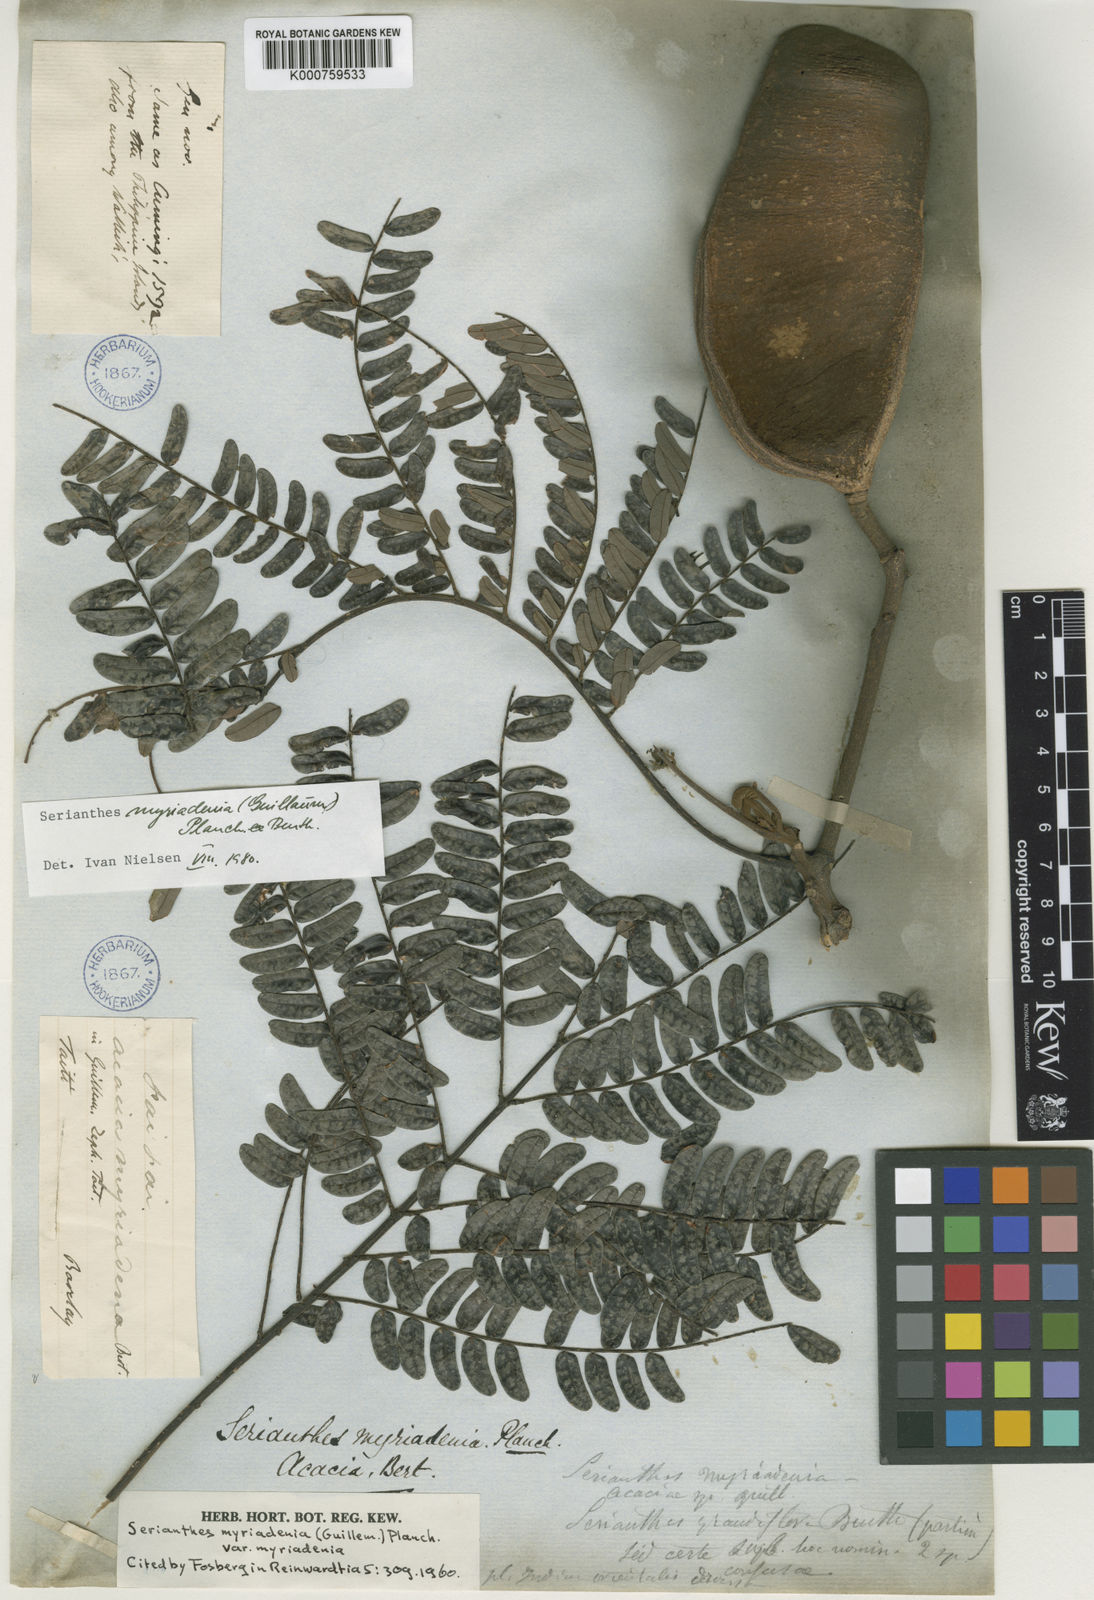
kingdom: Plantae
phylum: Tracheophyta
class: Magnoliopsida
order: Fabales
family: Fabaceae
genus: Serianthes
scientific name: Serianthes
